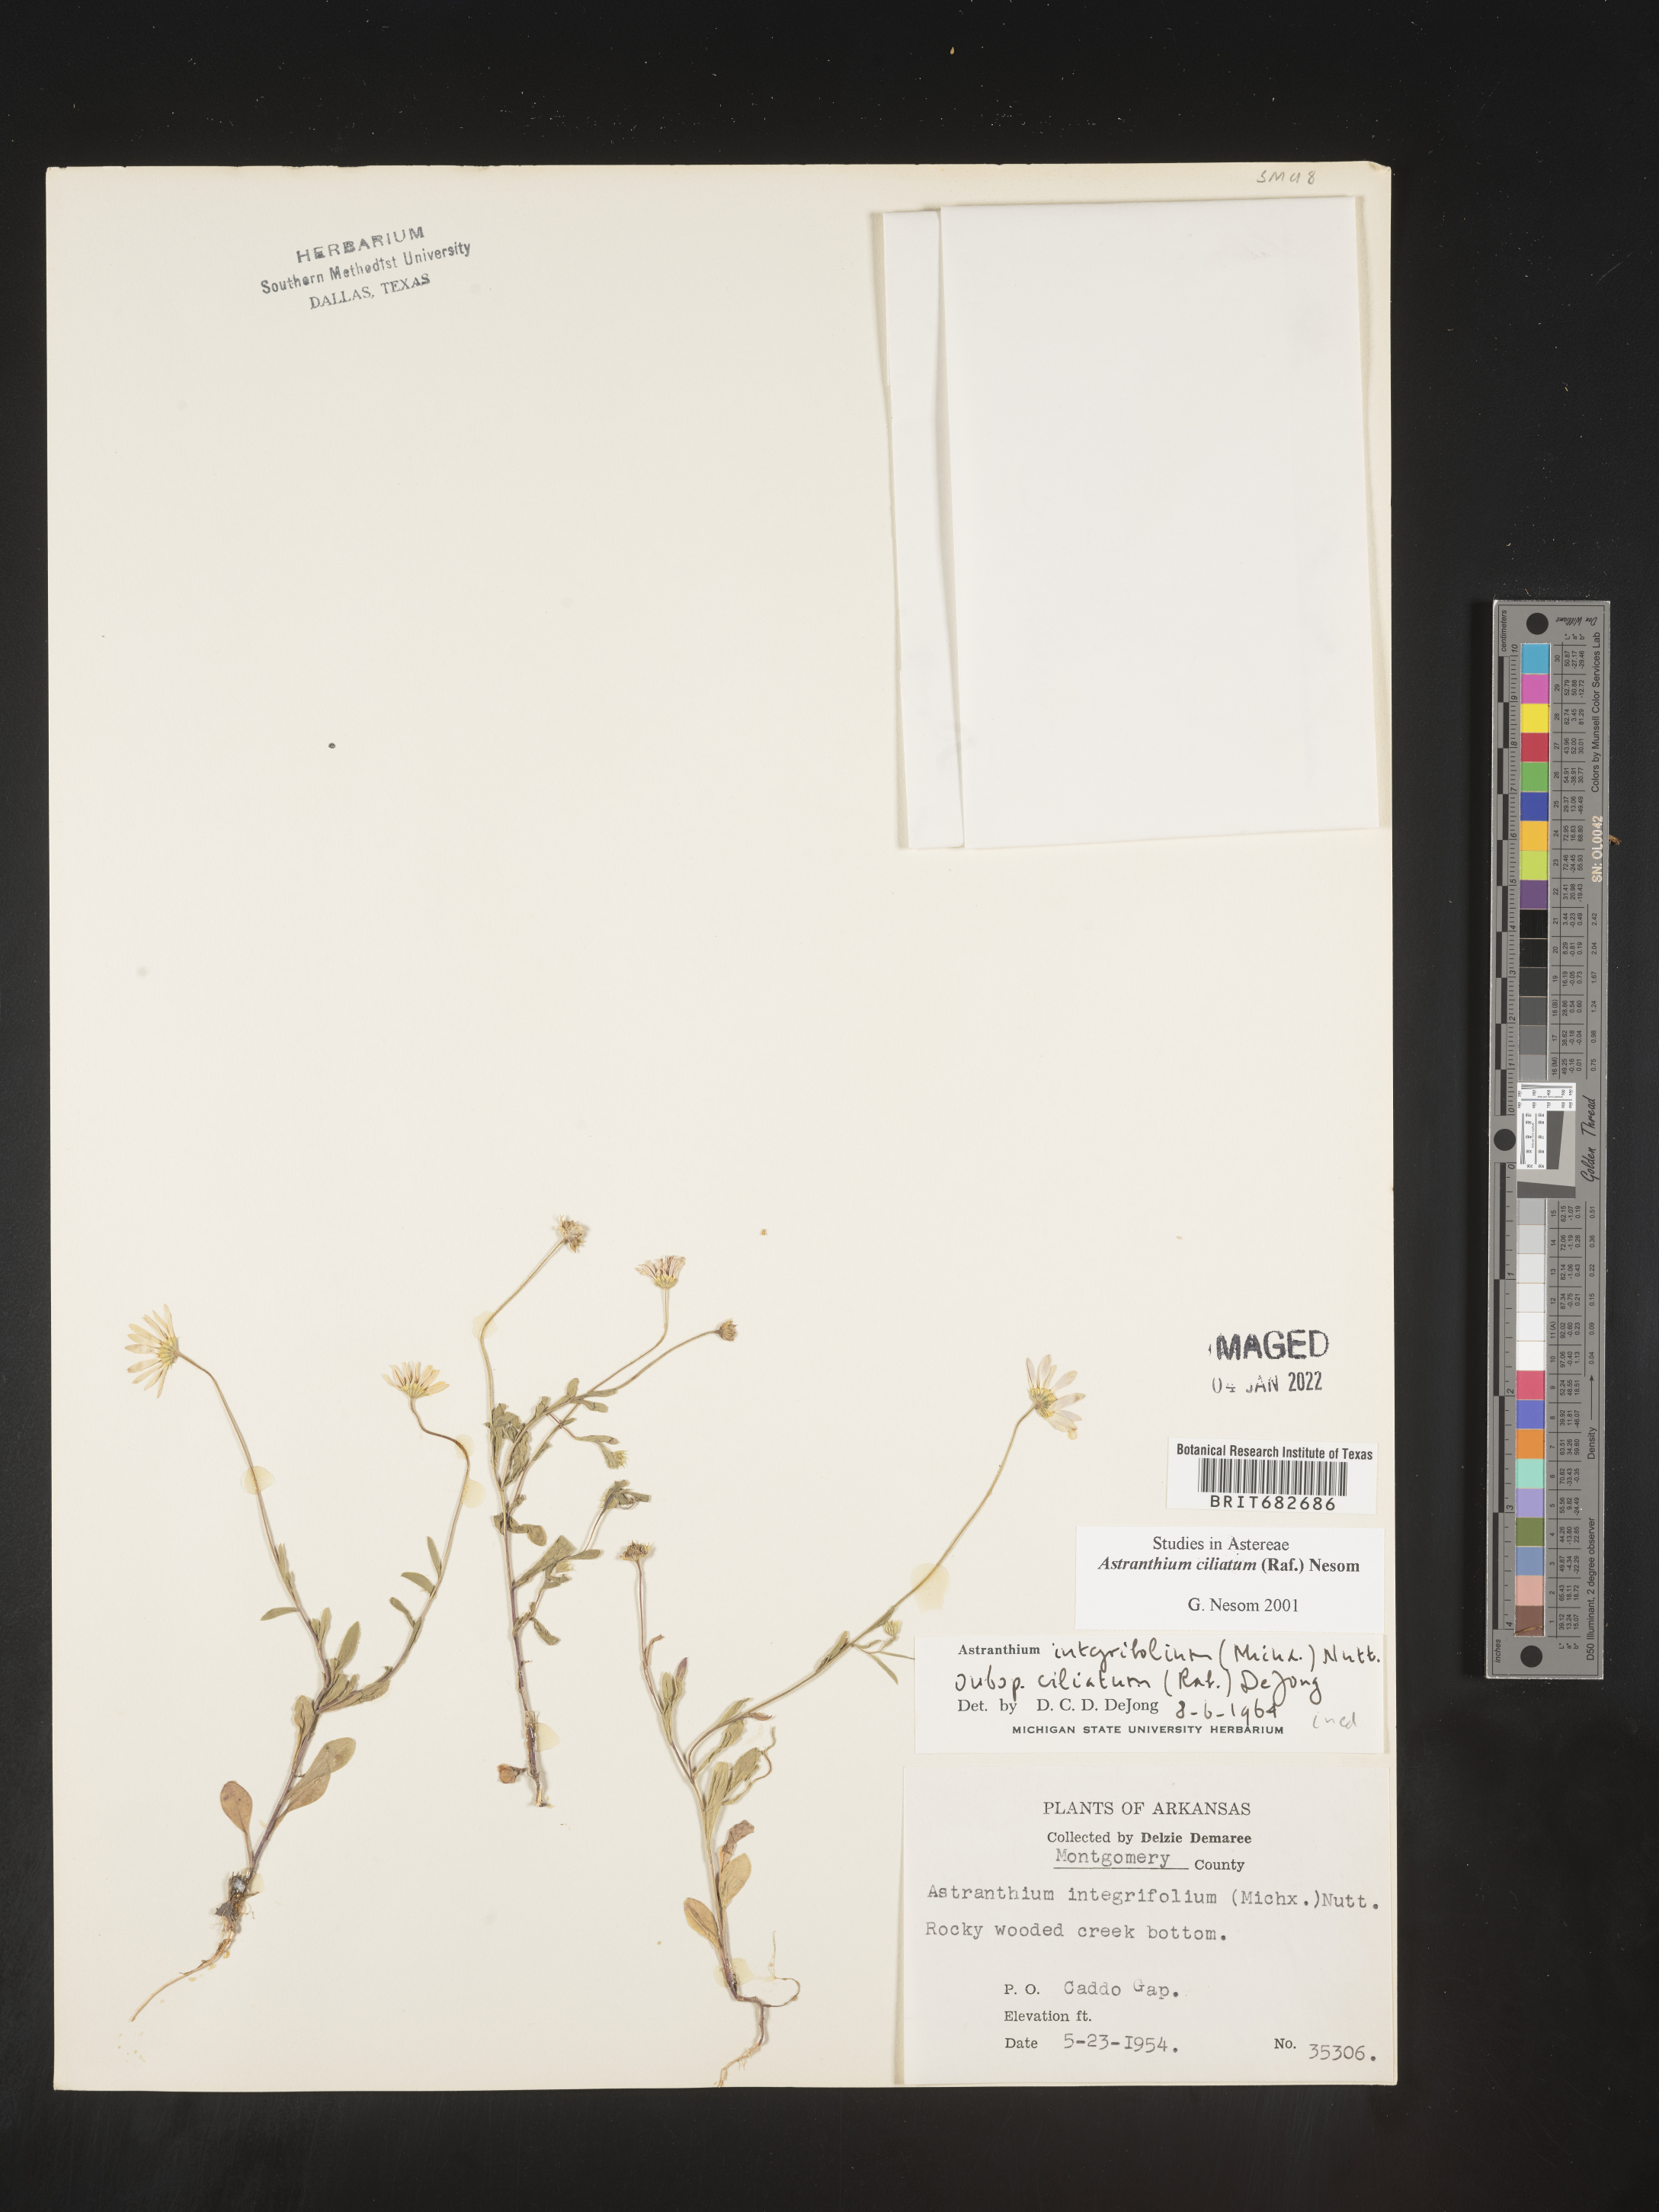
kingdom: Plantae
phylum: Tracheophyta
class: Magnoliopsida
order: Asterales
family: Asteraceae
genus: Astranthium
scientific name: Astranthium ciliatum
